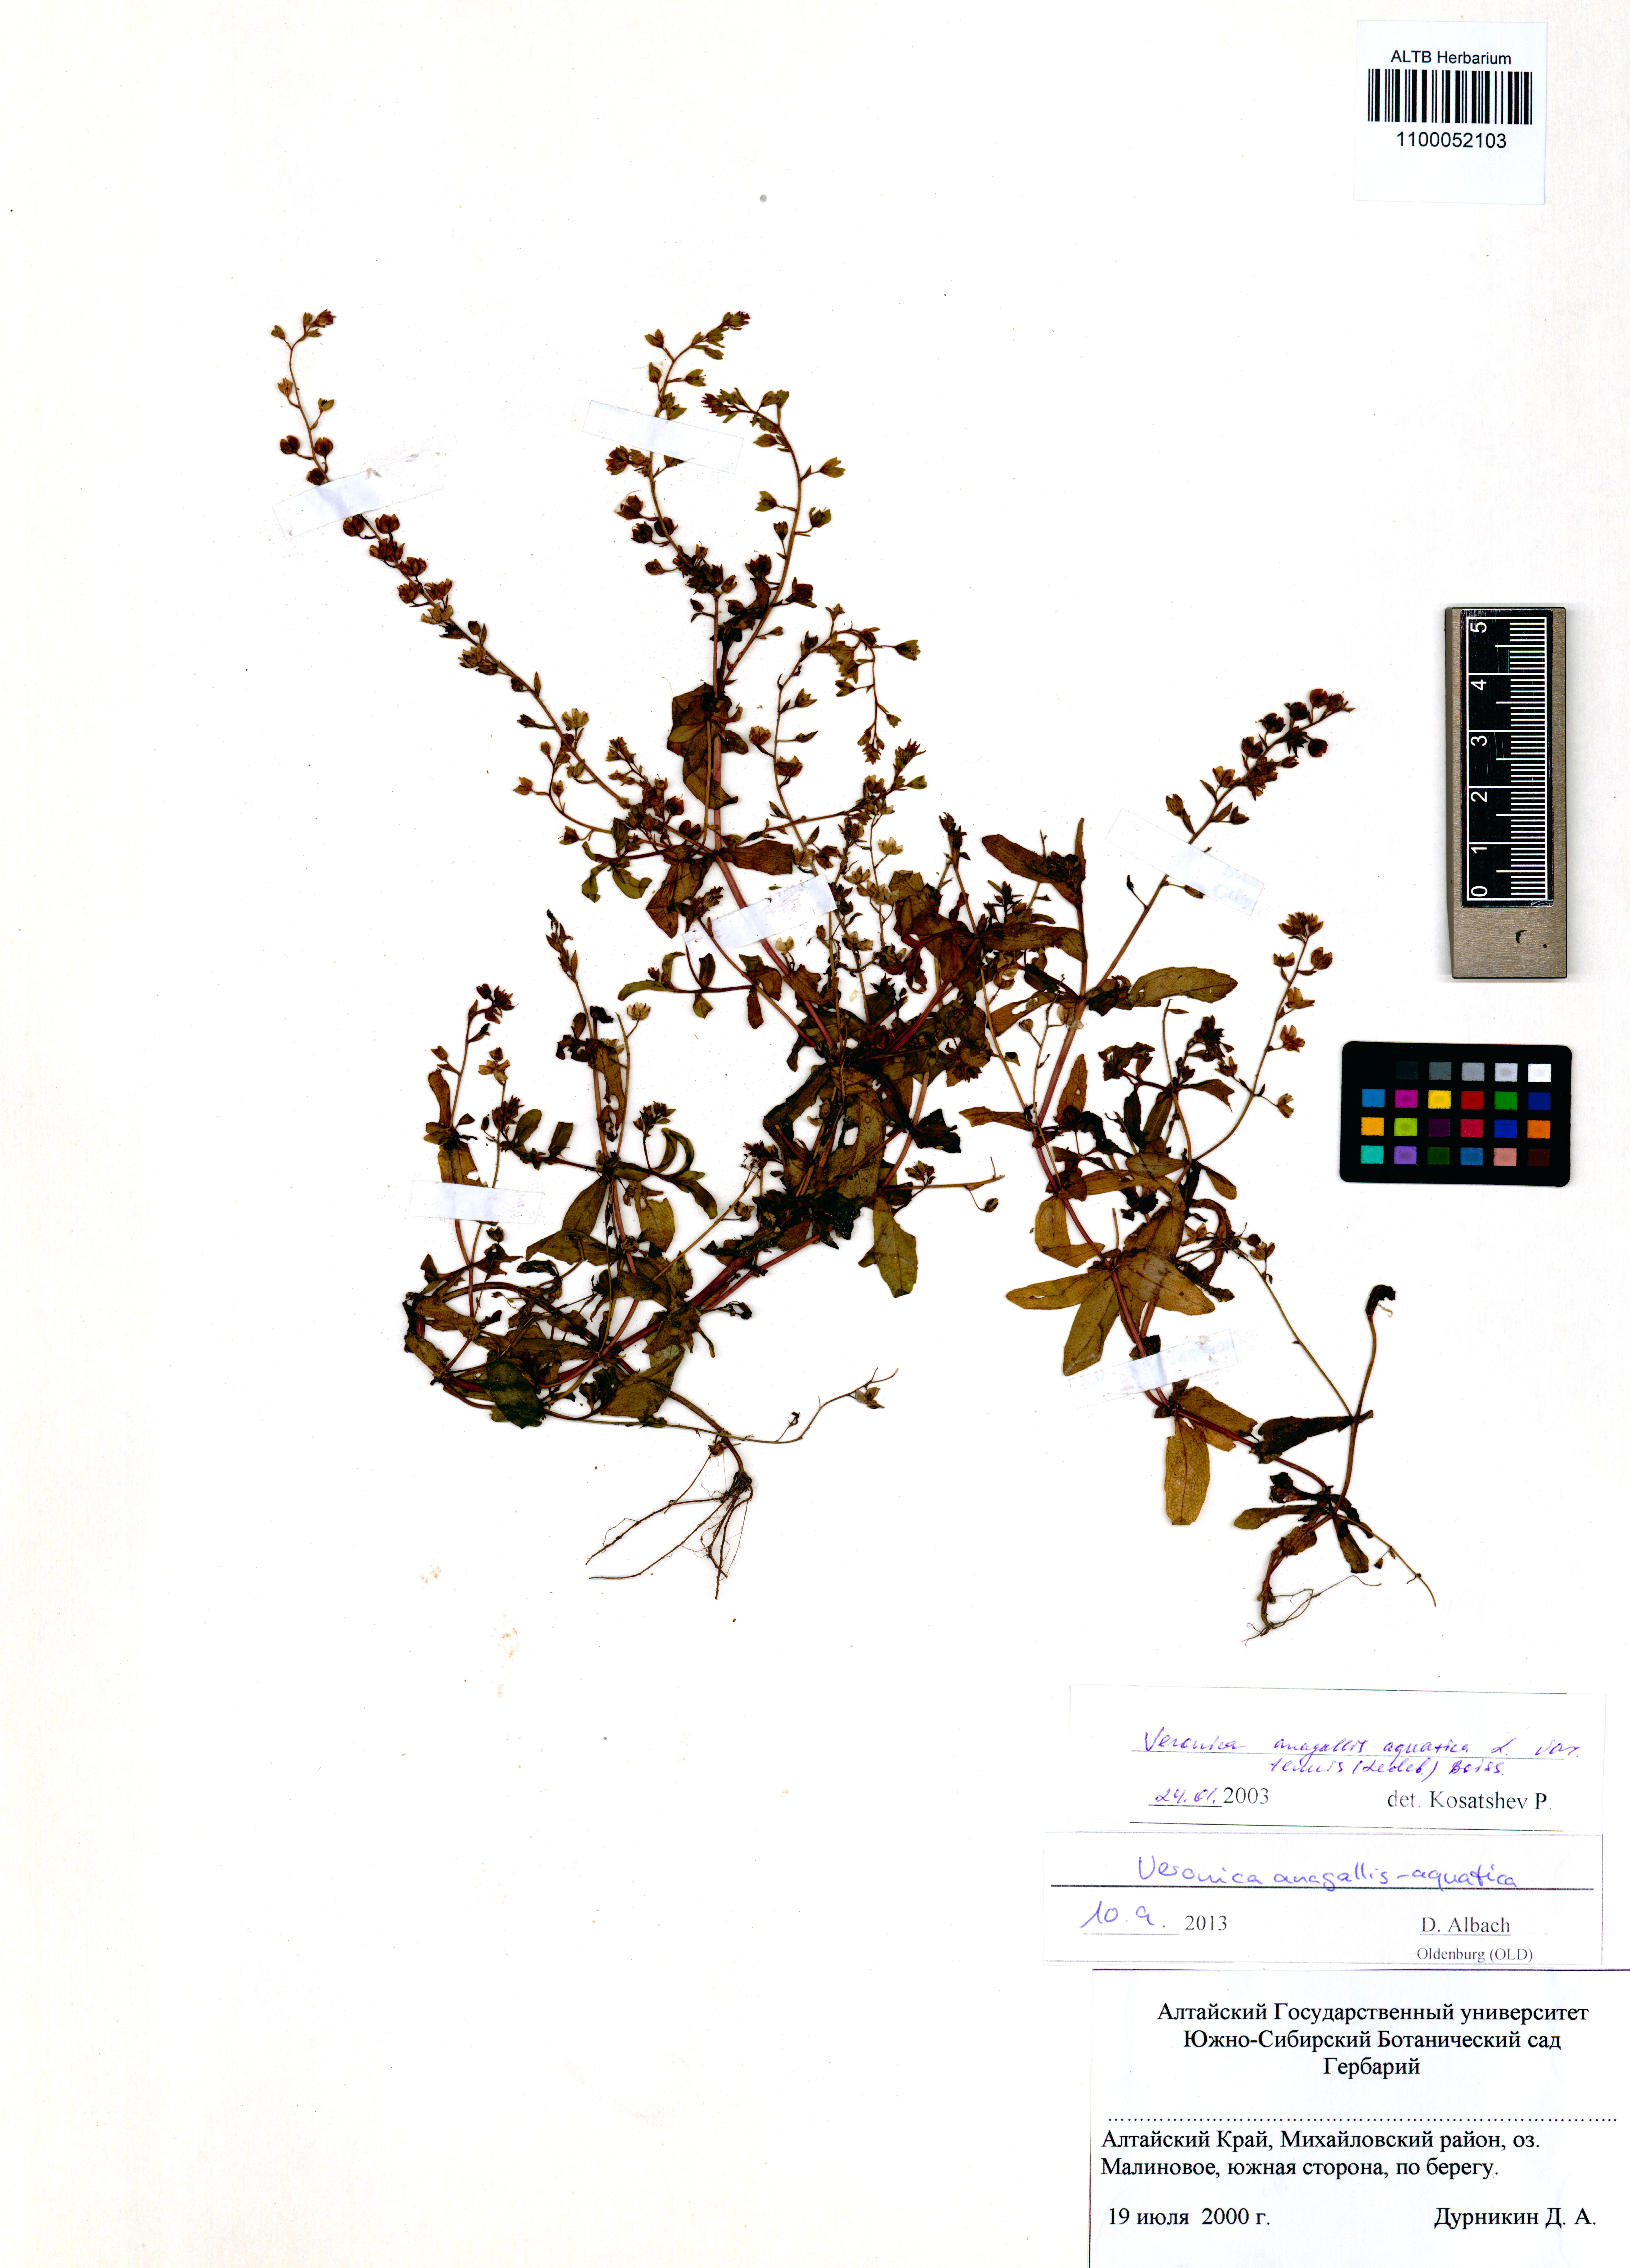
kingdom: Plantae
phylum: Tracheophyta
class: Magnoliopsida
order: Lamiales
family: Plantaginaceae
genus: Veronica
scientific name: Veronica anagallis-aquatica
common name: Water speedwell
